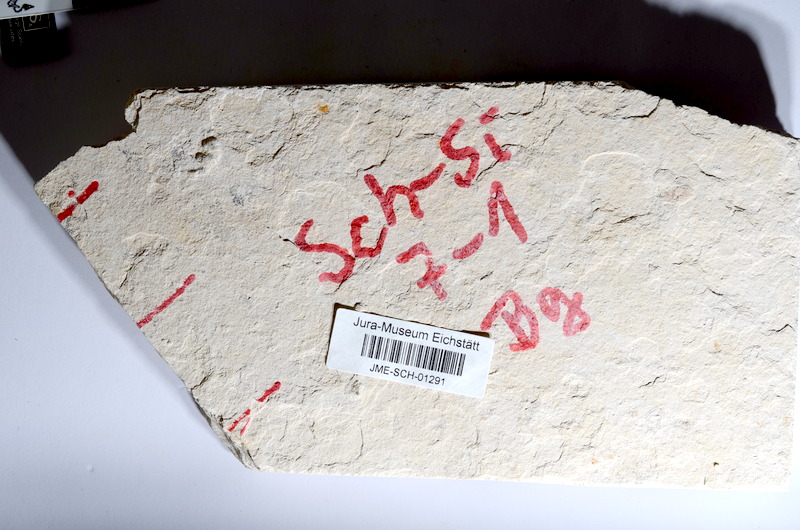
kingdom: Animalia
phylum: Chordata
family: Ascalaboidae
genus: Tharsis
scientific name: Tharsis dubius
